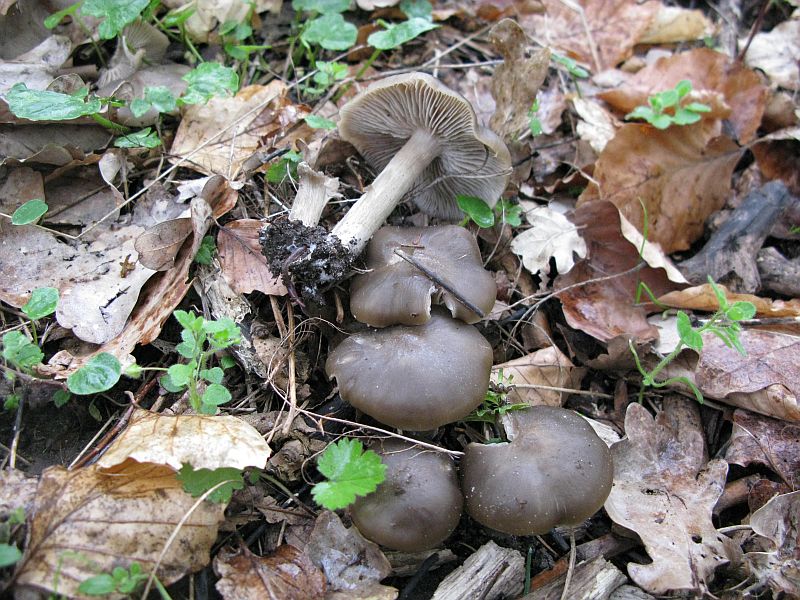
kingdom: Fungi
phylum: Basidiomycota
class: Agaricomycetes
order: Agaricales
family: Entolomataceae
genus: Entoloma
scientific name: Entoloma clypeatum
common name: flammet rødblad
